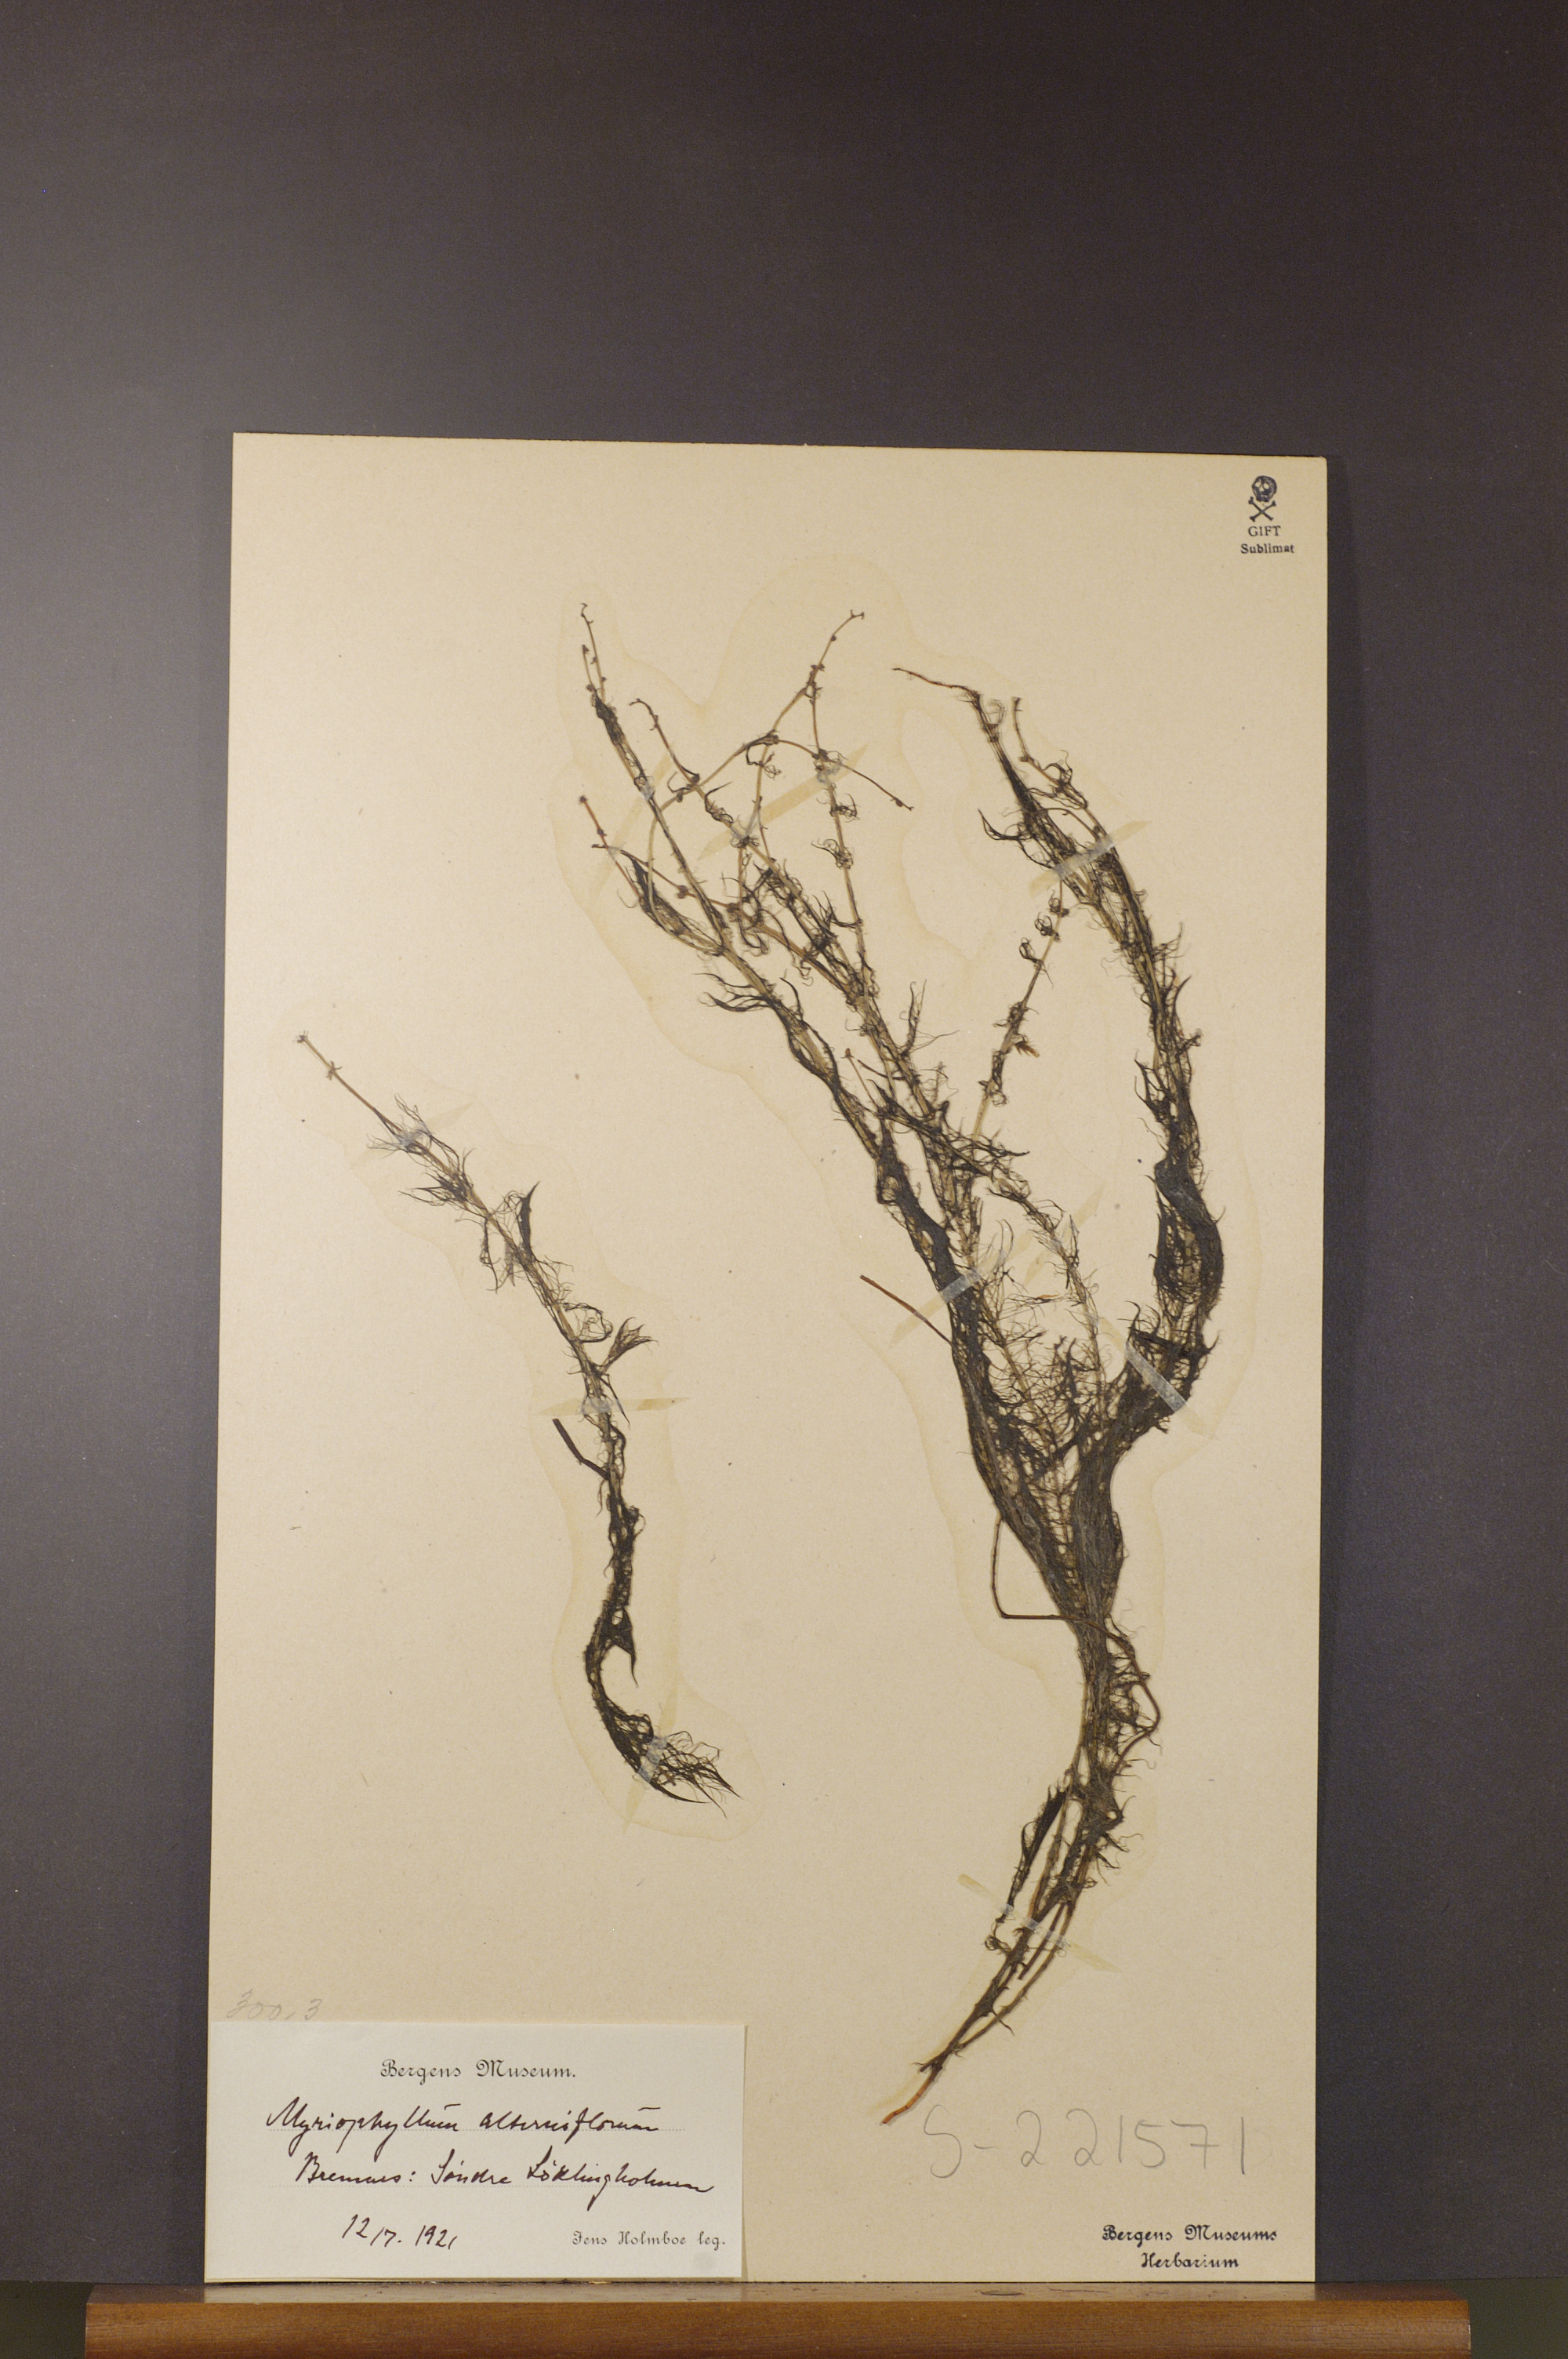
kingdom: Plantae
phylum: Tracheophyta
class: Magnoliopsida
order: Saxifragales
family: Haloragaceae
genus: Myriophyllum
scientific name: Myriophyllum alterniflorum
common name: Alternate water-milfoil
